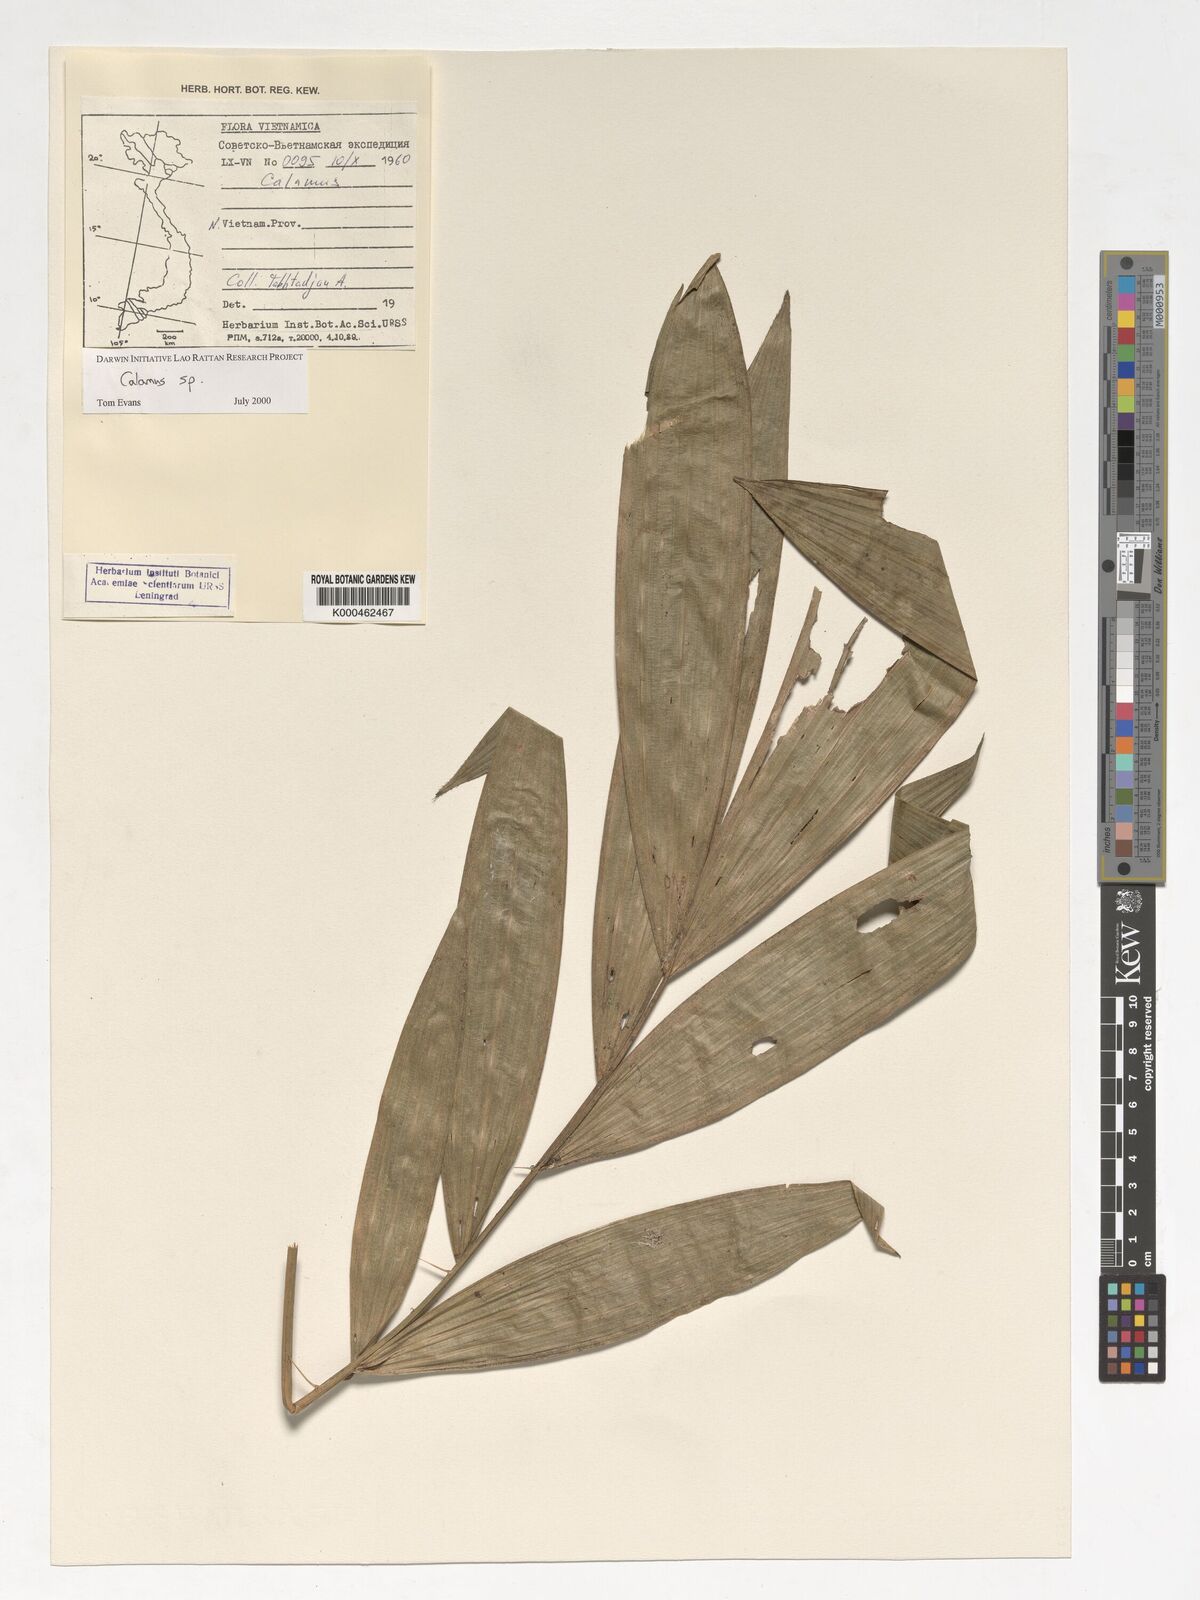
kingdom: Plantae
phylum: Tracheophyta
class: Liliopsida
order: Arecales
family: Arecaceae
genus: Calamus
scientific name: Calamus
